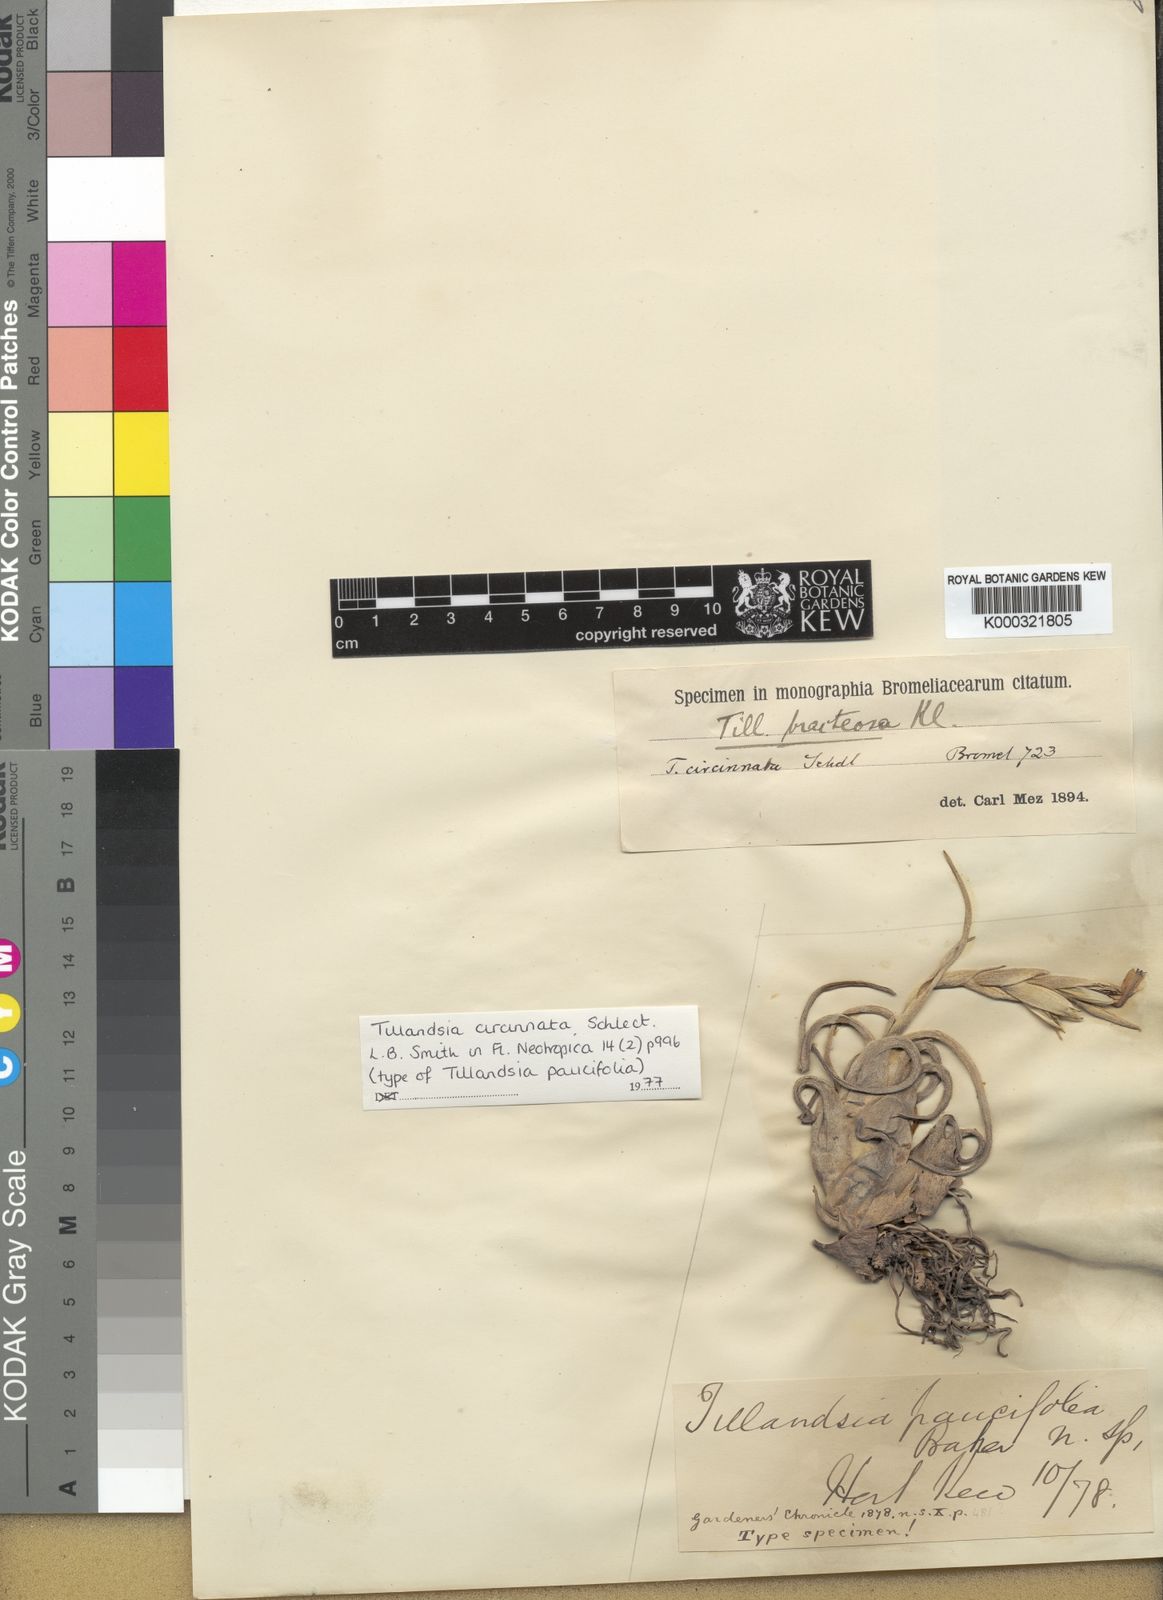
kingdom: Plantae
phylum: Tracheophyta
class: Liliopsida
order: Poales
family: Bromeliaceae
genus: Tillandsia
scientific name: Tillandsia paucifolia
